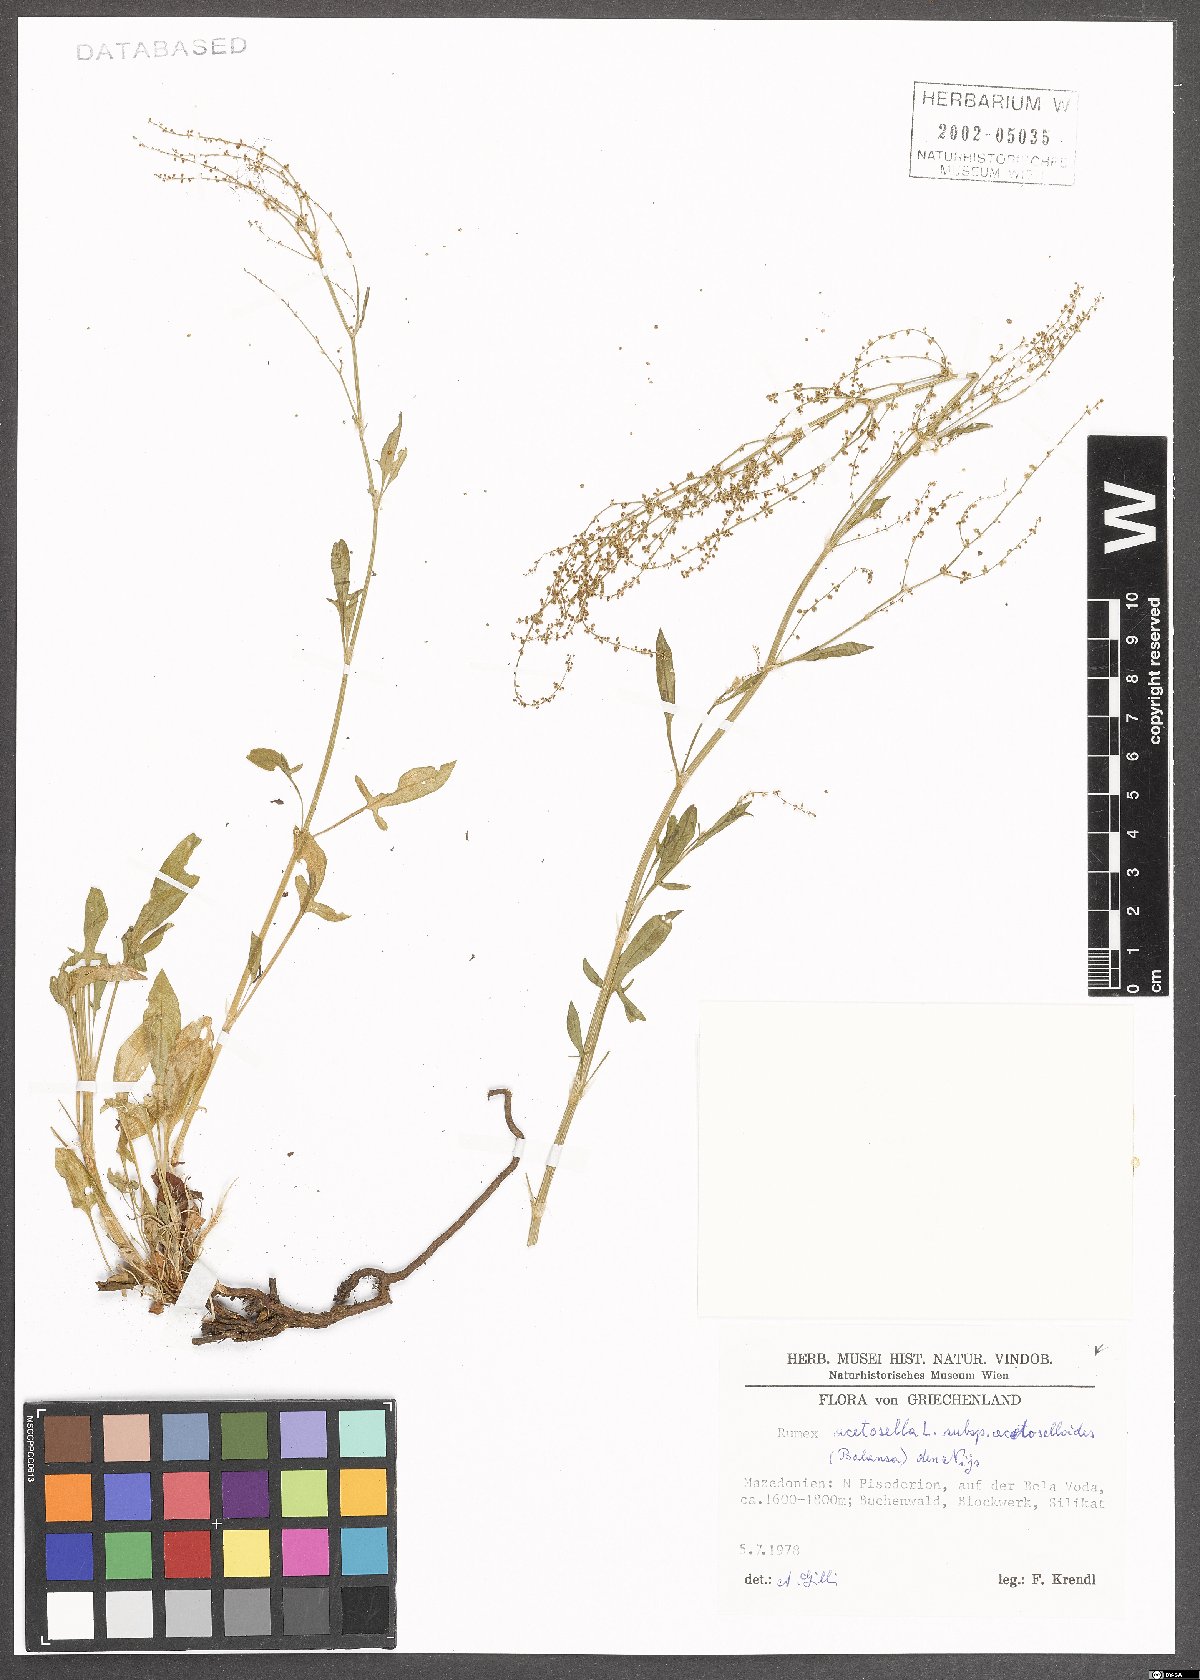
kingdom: Plantae
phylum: Tracheophyta
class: Magnoliopsida
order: Caryophyllales
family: Polygonaceae
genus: Rumex
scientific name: Rumex acetosella
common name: Common sheep sorrel
